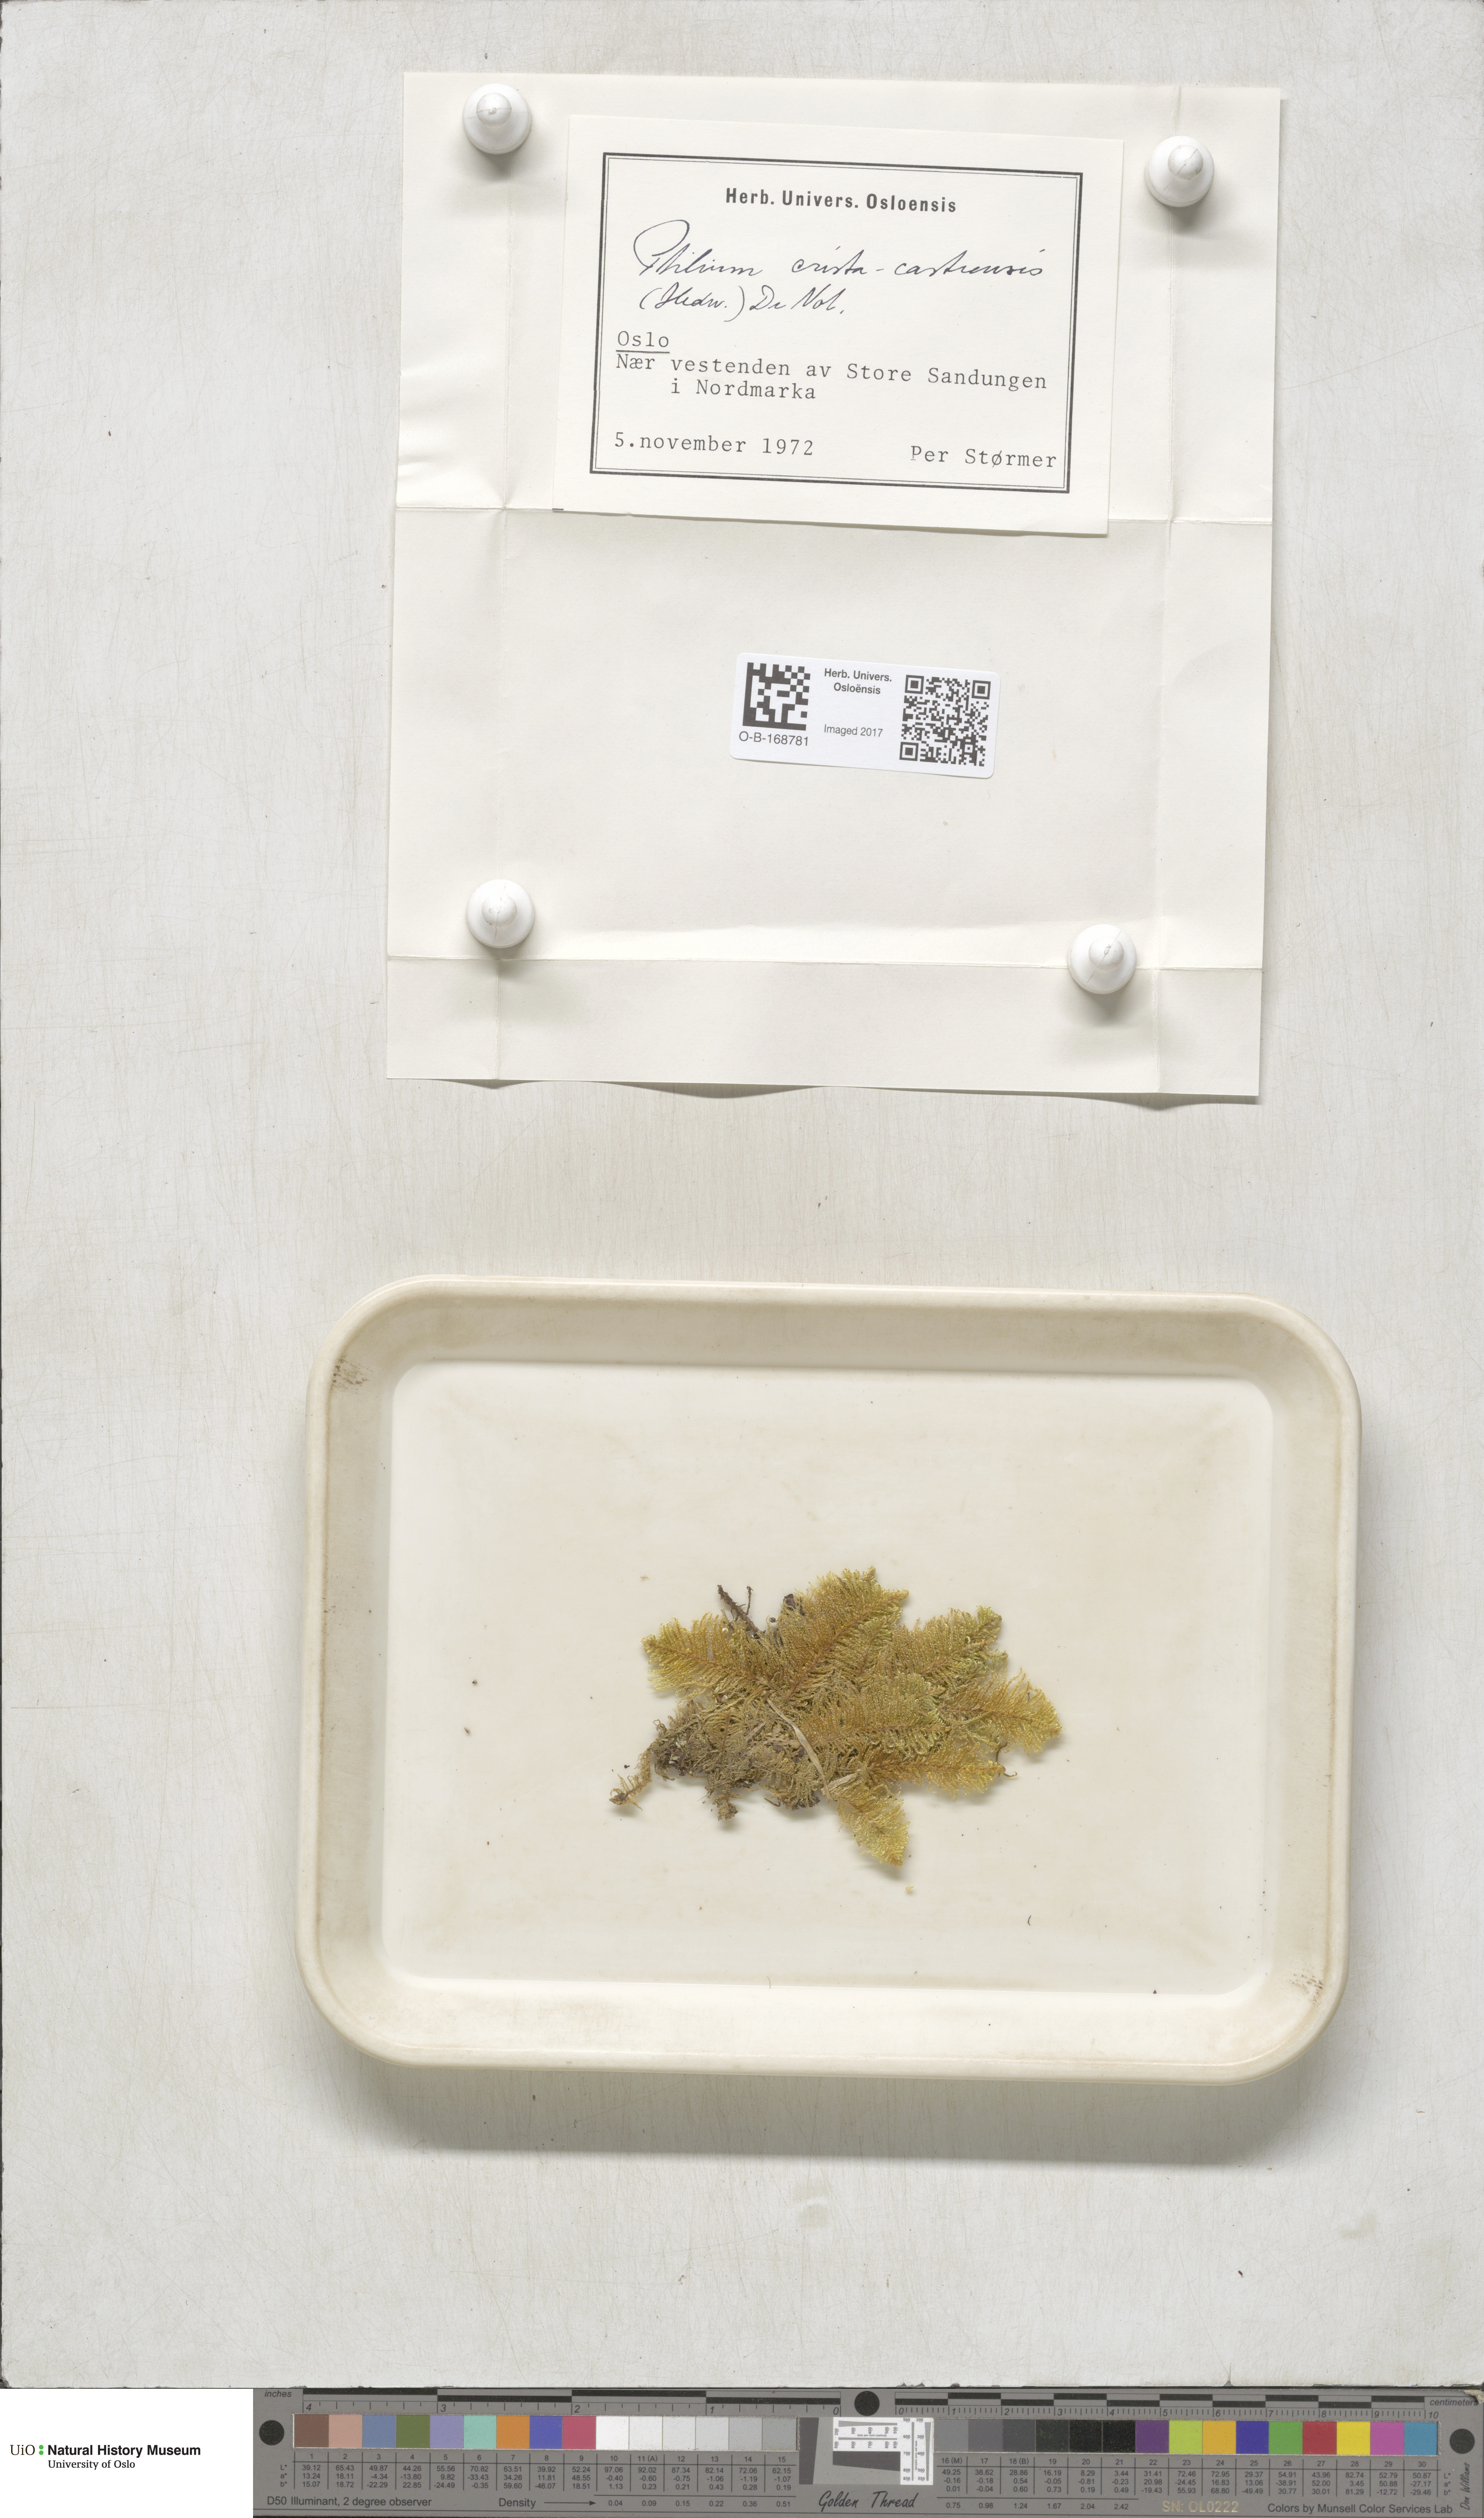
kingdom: Plantae
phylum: Bryophyta
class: Bryopsida
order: Hypnales
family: Pylaisiaceae
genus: Ptilium
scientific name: Ptilium crista-castrensis
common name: Knight's plume moss
